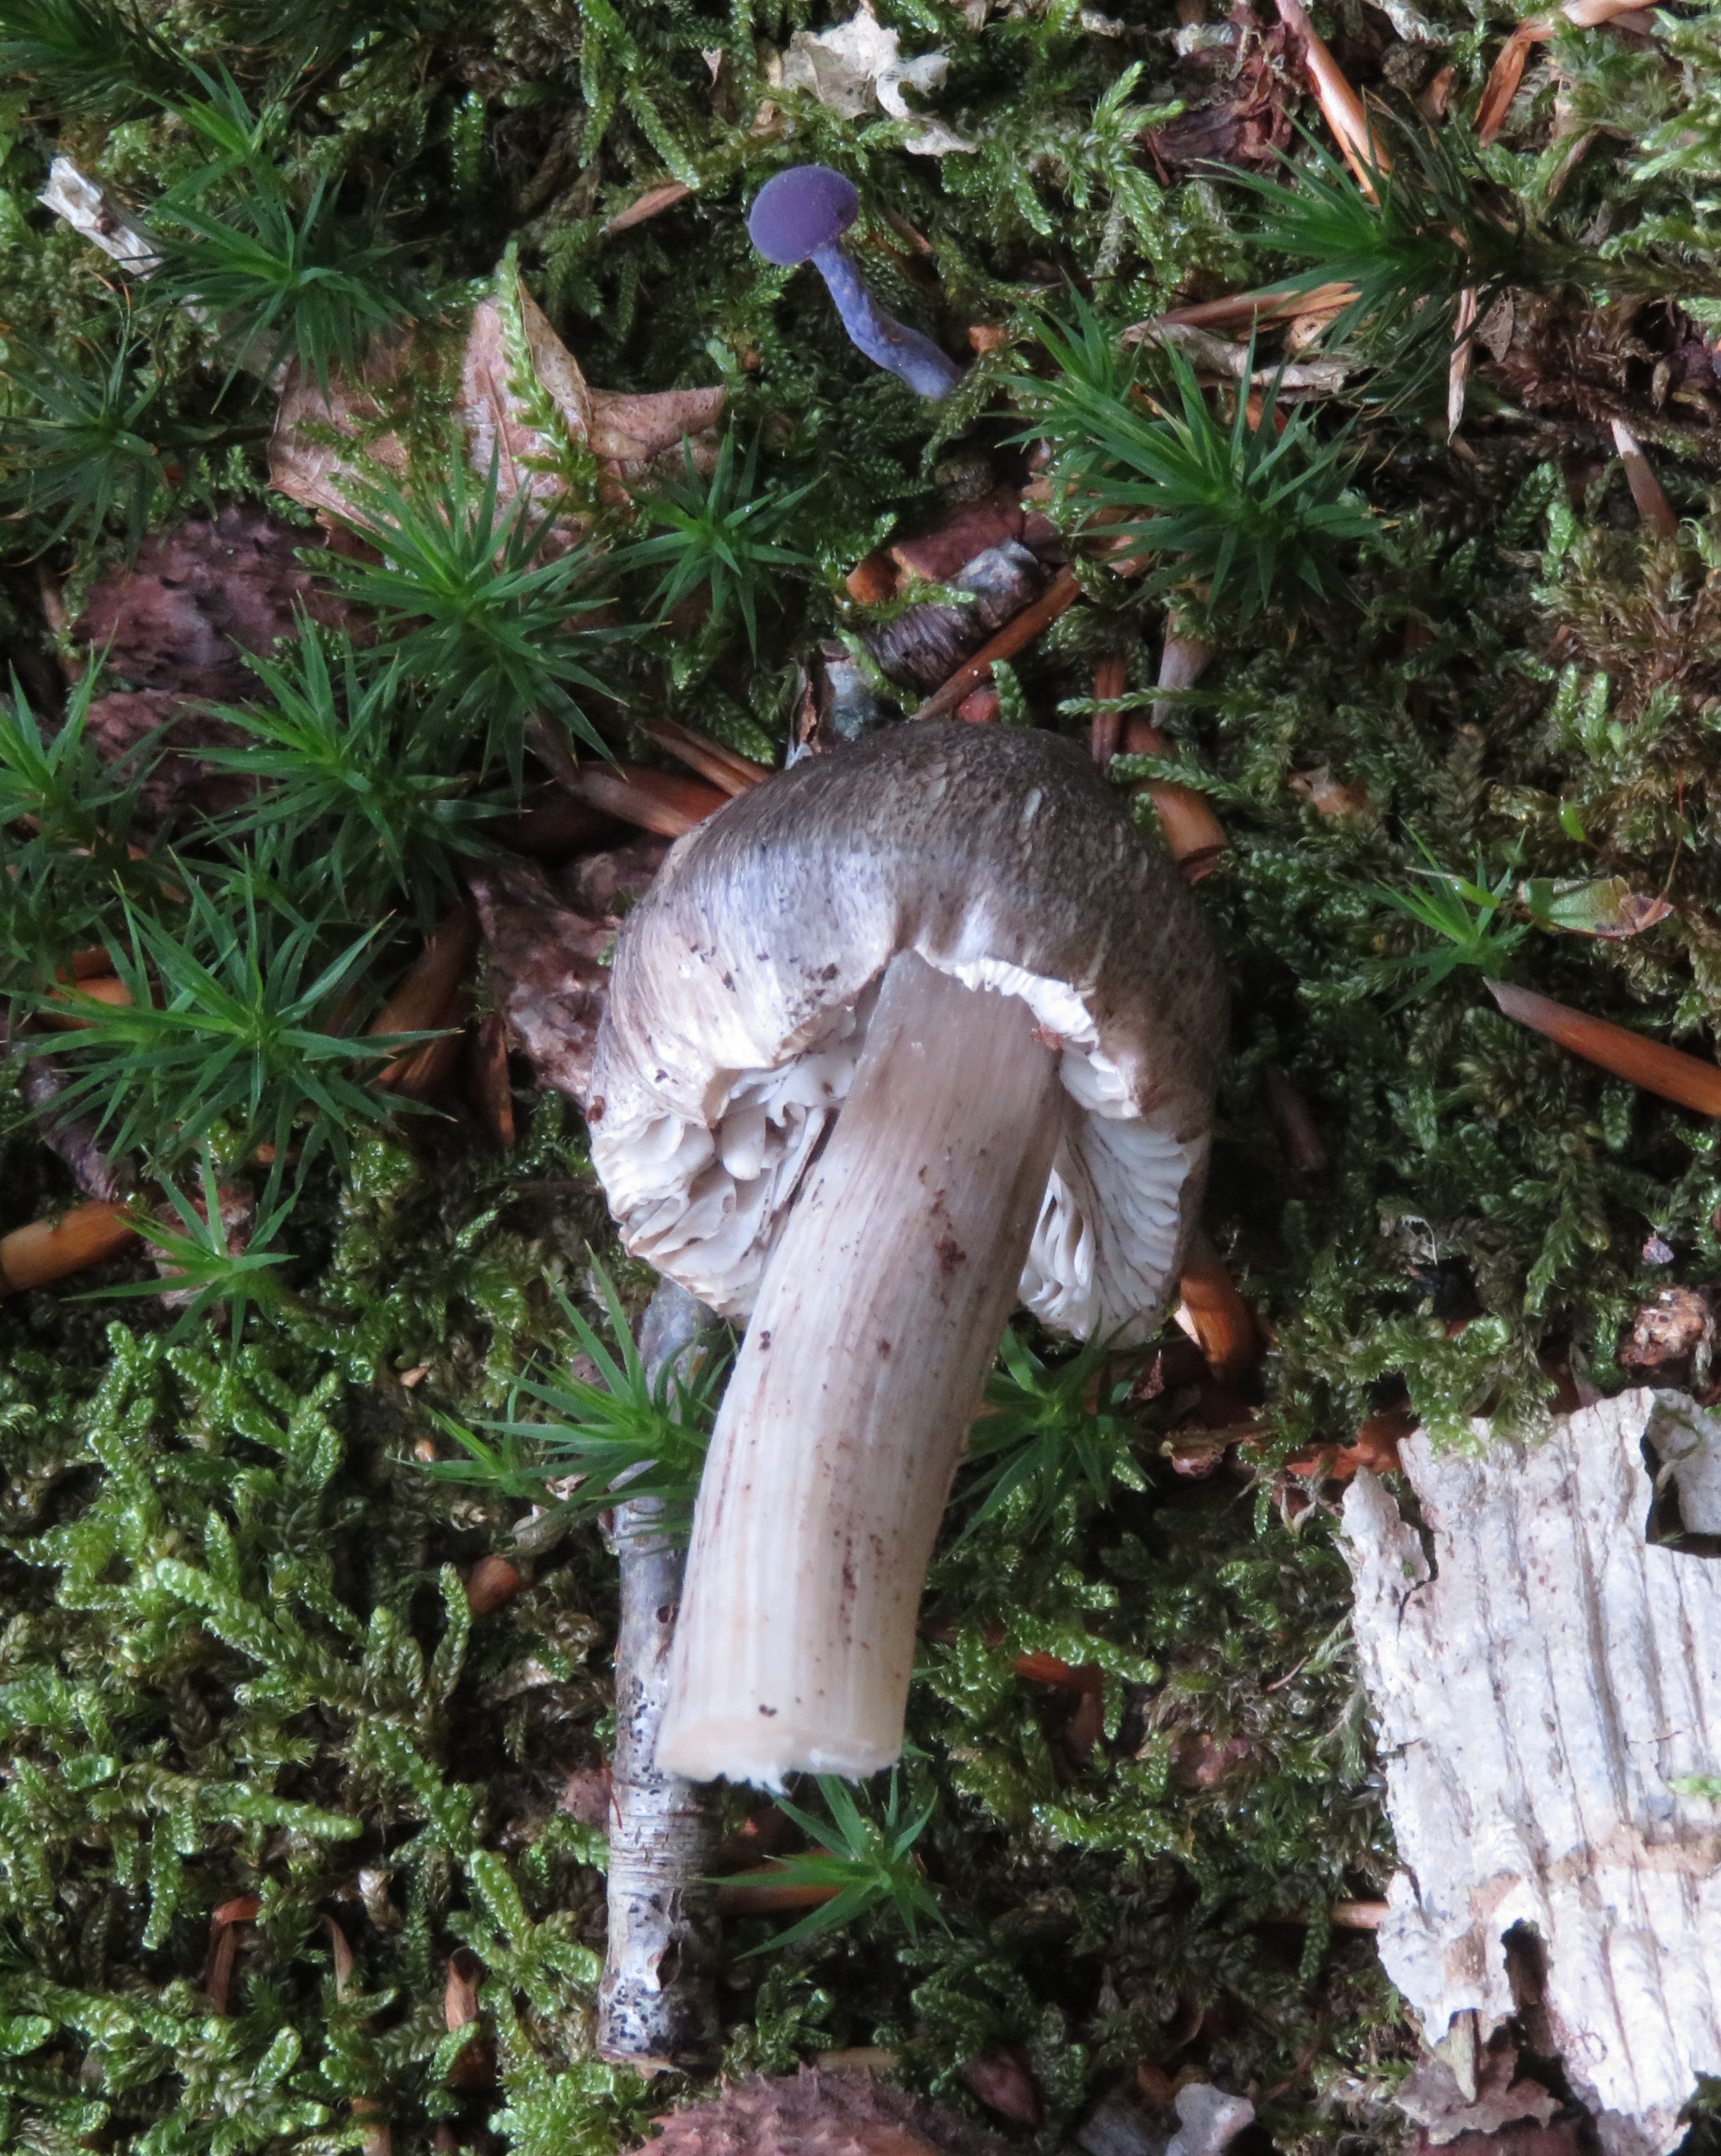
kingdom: Fungi
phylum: Basidiomycota
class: Agaricomycetes
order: Agaricales
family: Tricholomataceae
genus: Tricholoma
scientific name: Tricholoma sciodes
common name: Stribet ridderhat
